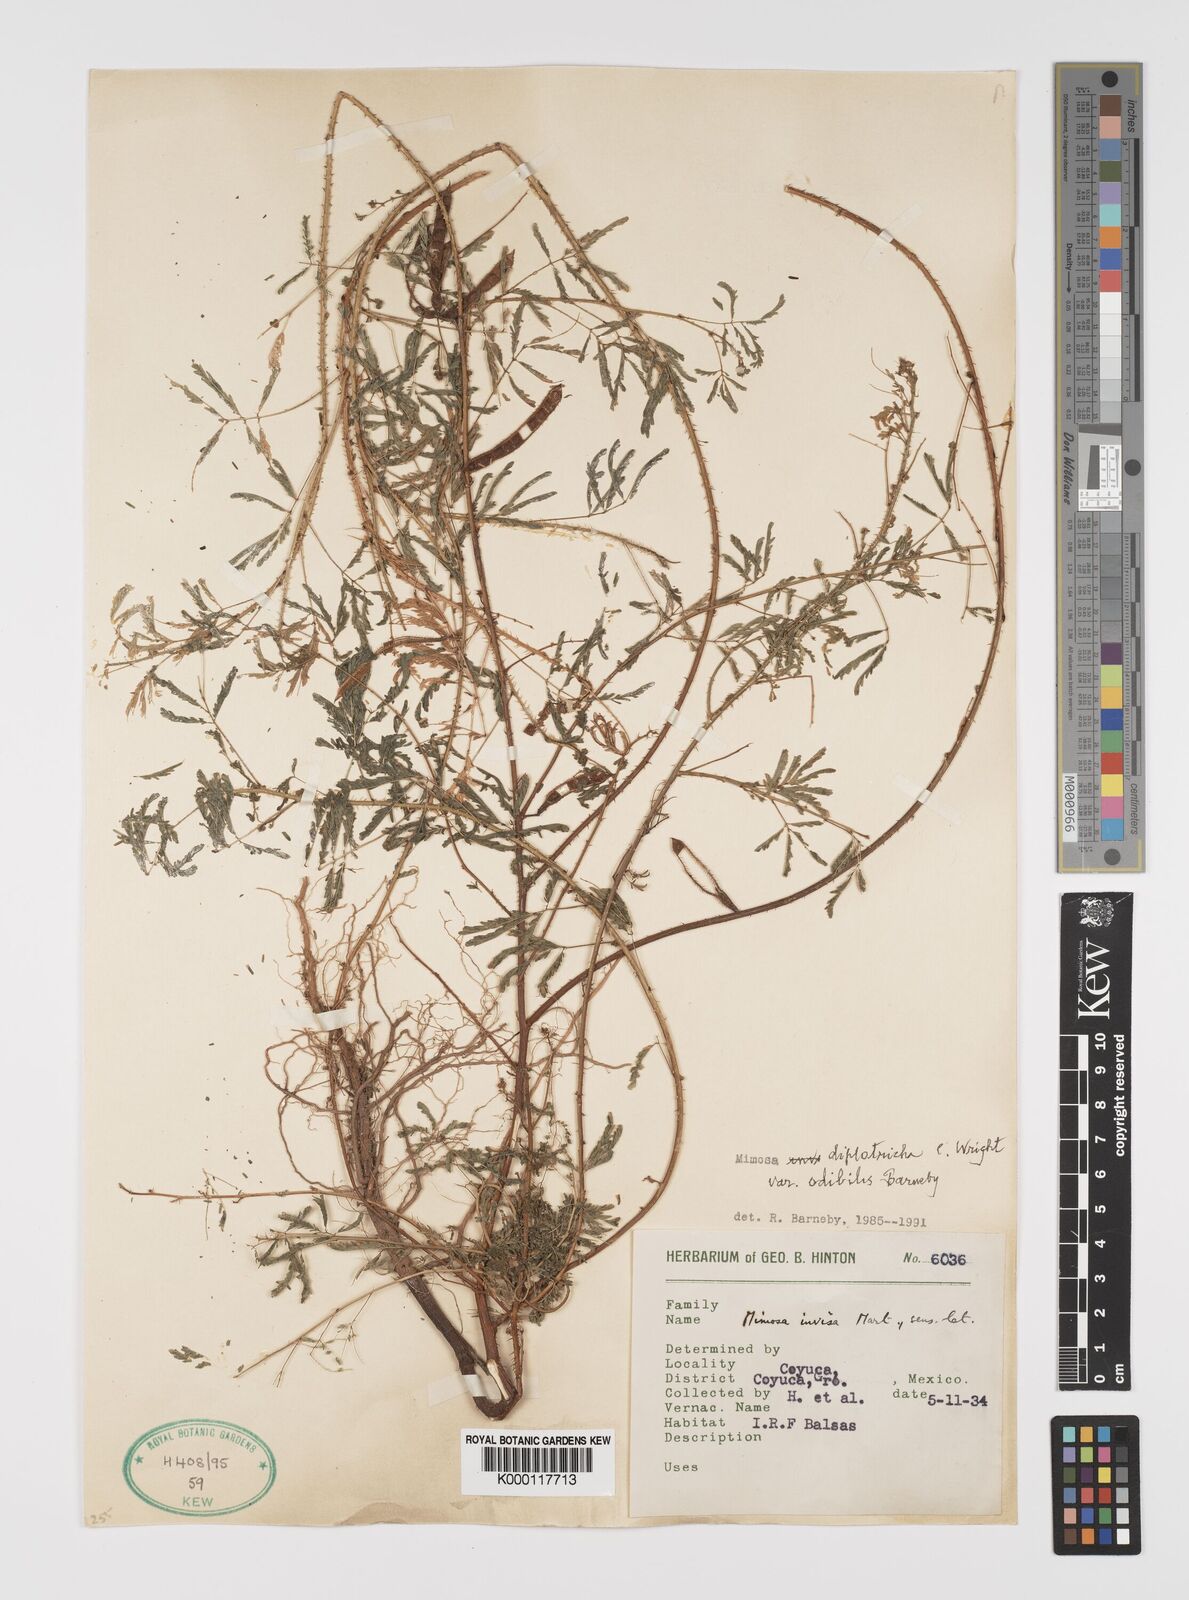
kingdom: Plantae
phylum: Tracheophyta
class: Magnoliopsida
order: Fabales
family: Fabaceae
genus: Mimosa
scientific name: Mimosa diplotricha
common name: Giant sensitive-plant
